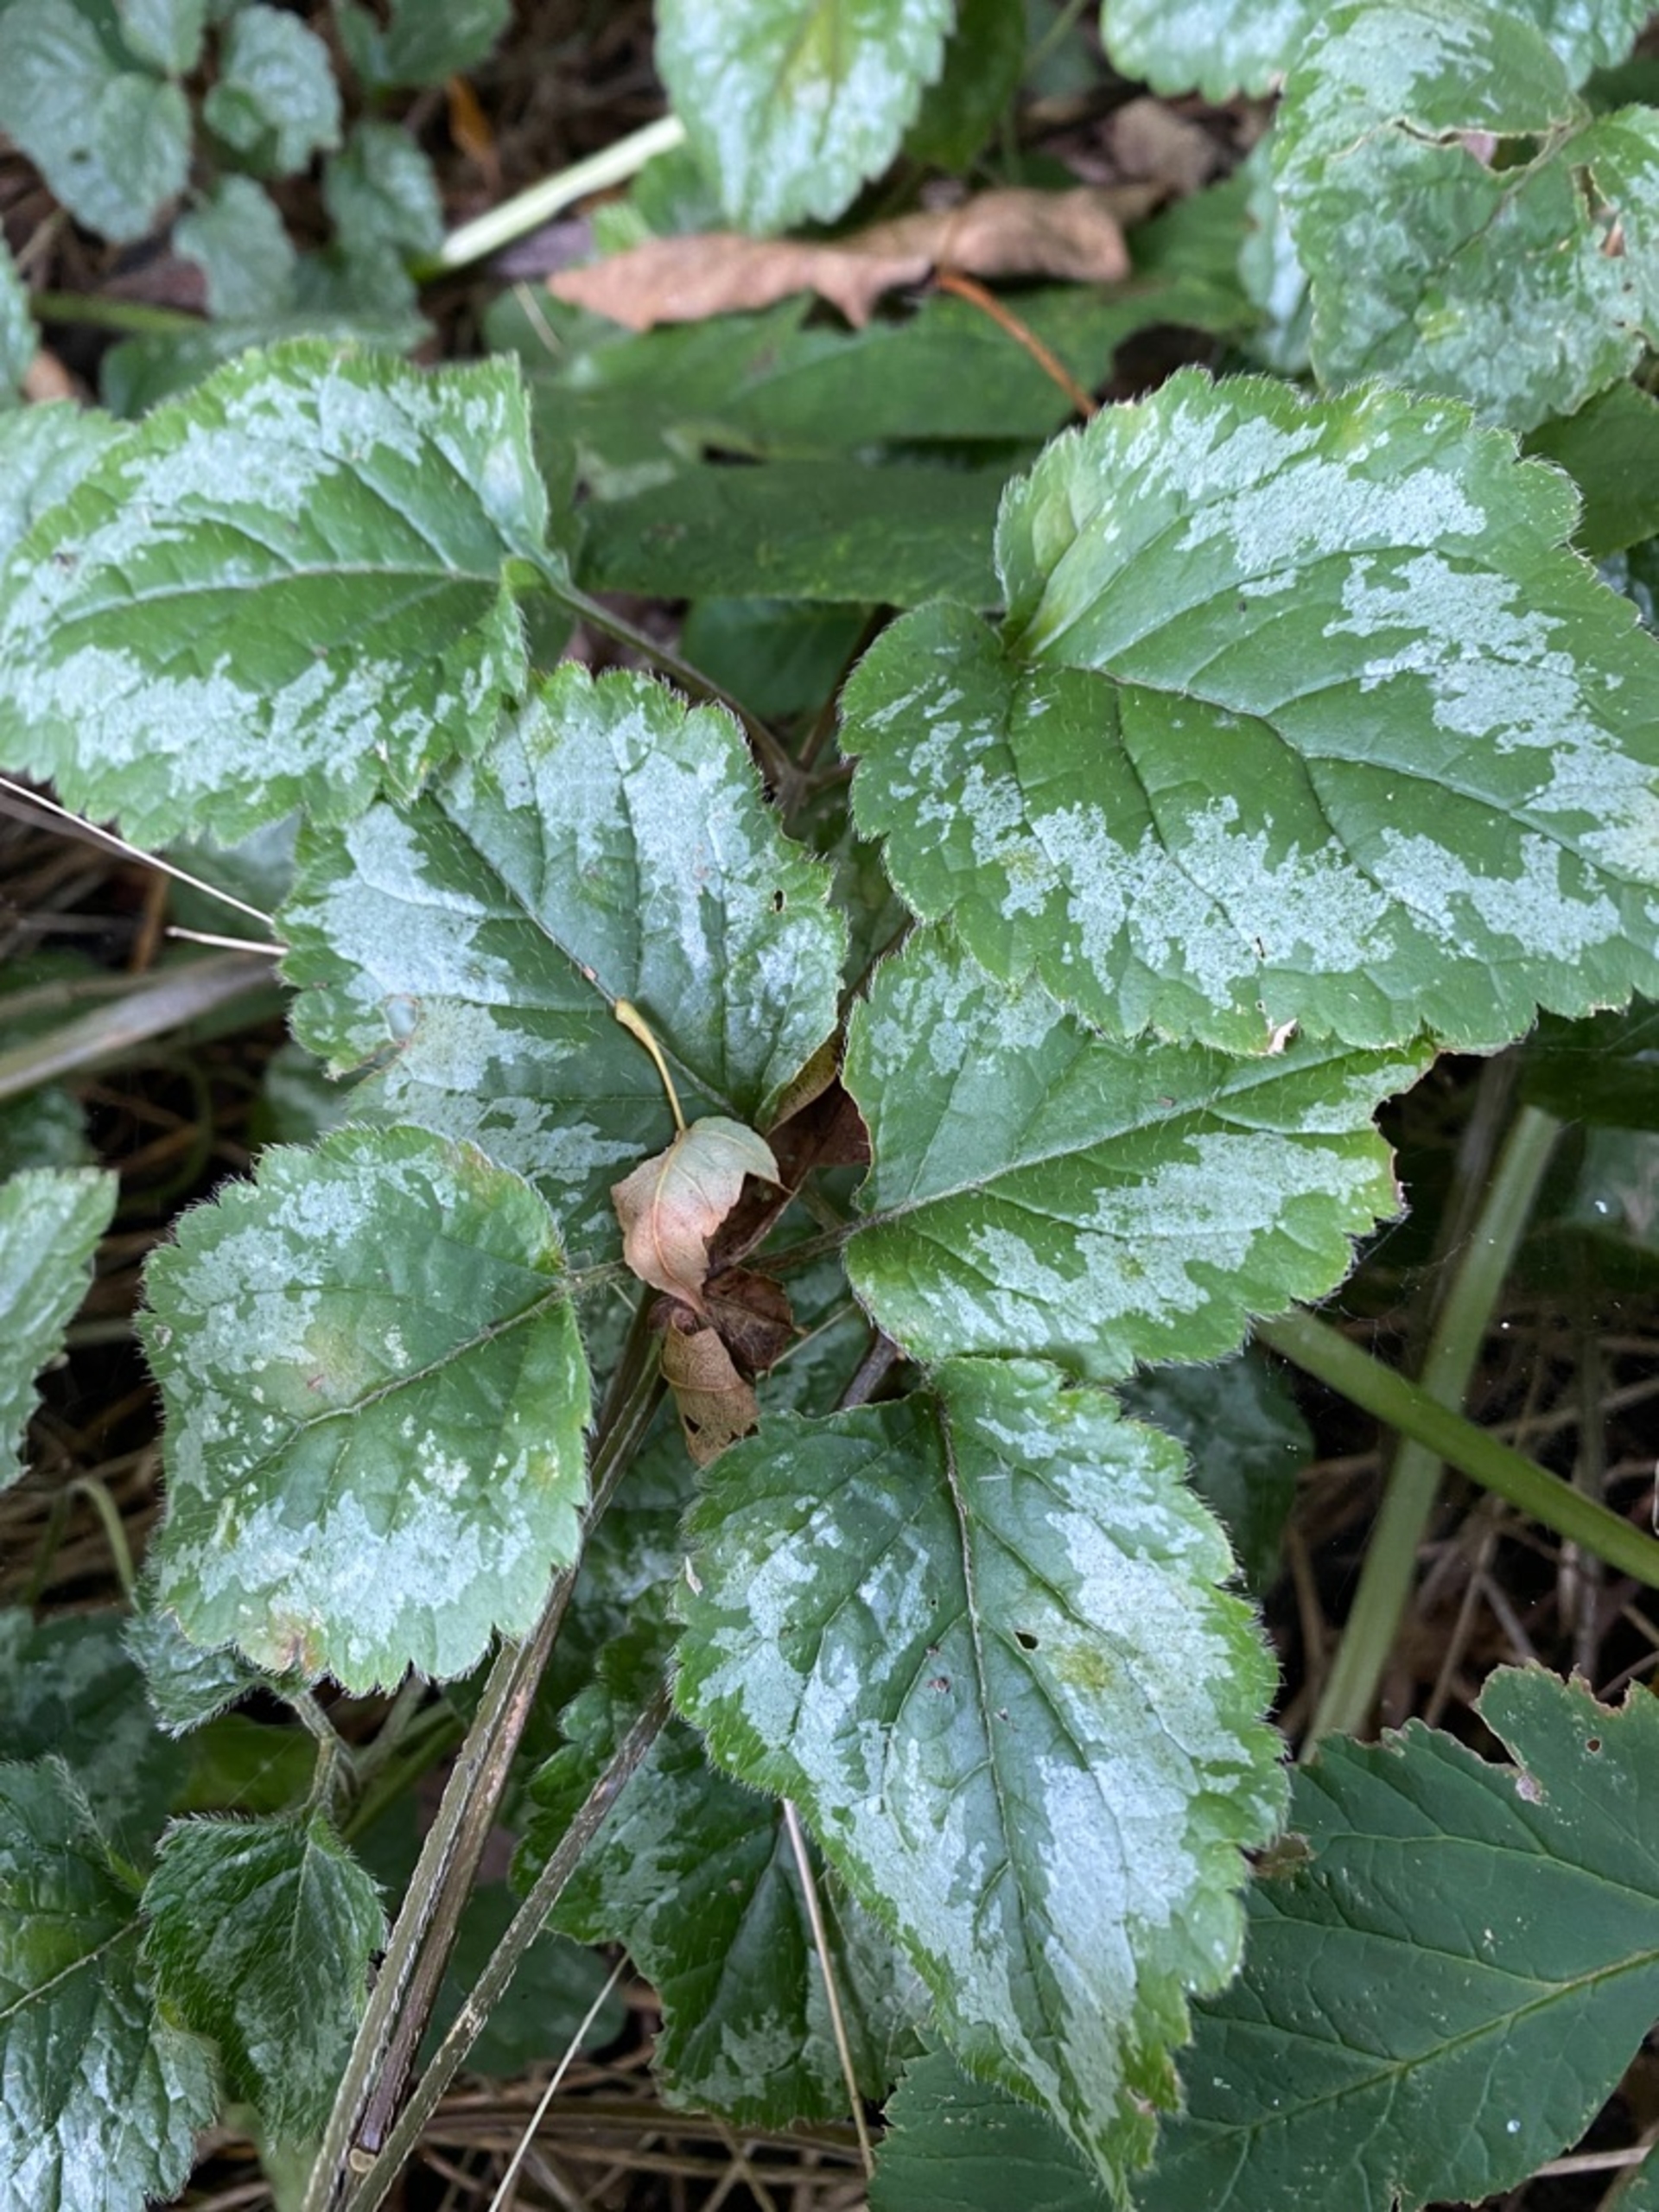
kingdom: Plantae
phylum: Tracheophyta
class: Magnoliopsida
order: Lamiales
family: Lamiaceae
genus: Lamium
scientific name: Lamium galeobdolon
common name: Have-guldnælde
